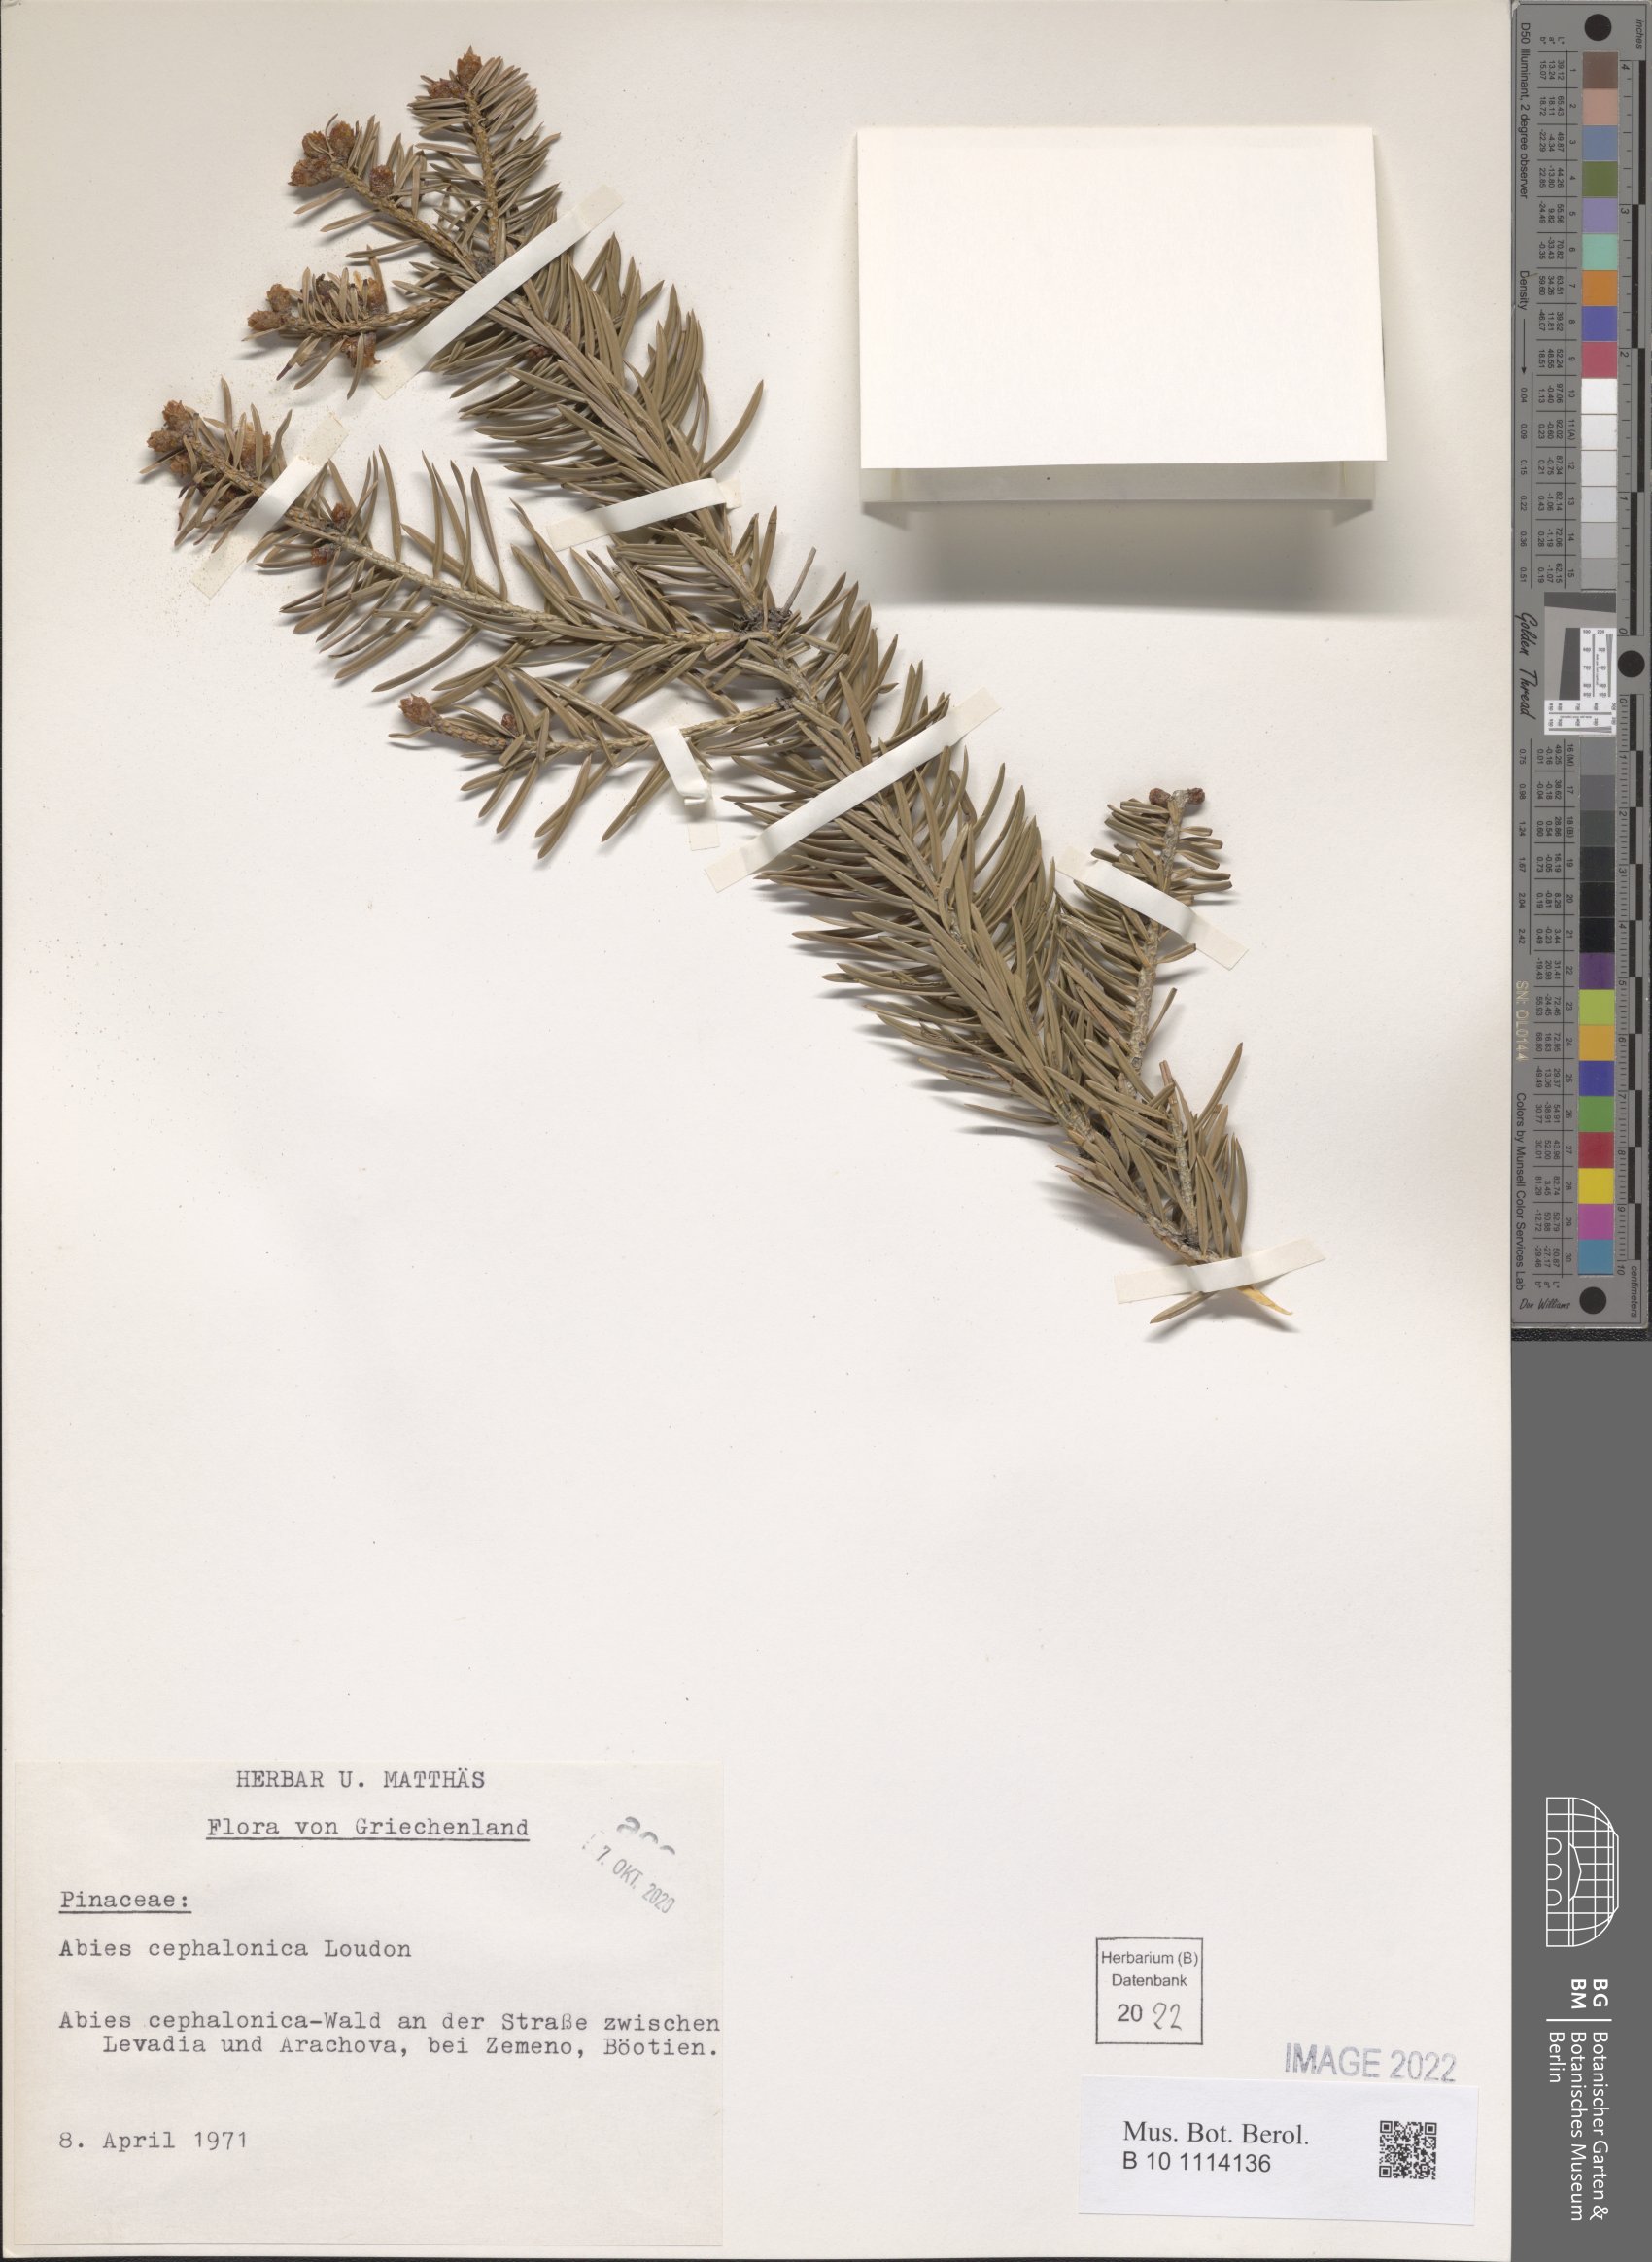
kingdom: Plantae
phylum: Tracheophyta
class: Pinopsida
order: Pinales
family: Pinaceae
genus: Abies
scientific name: Abies cephalonica
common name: Greek fir
